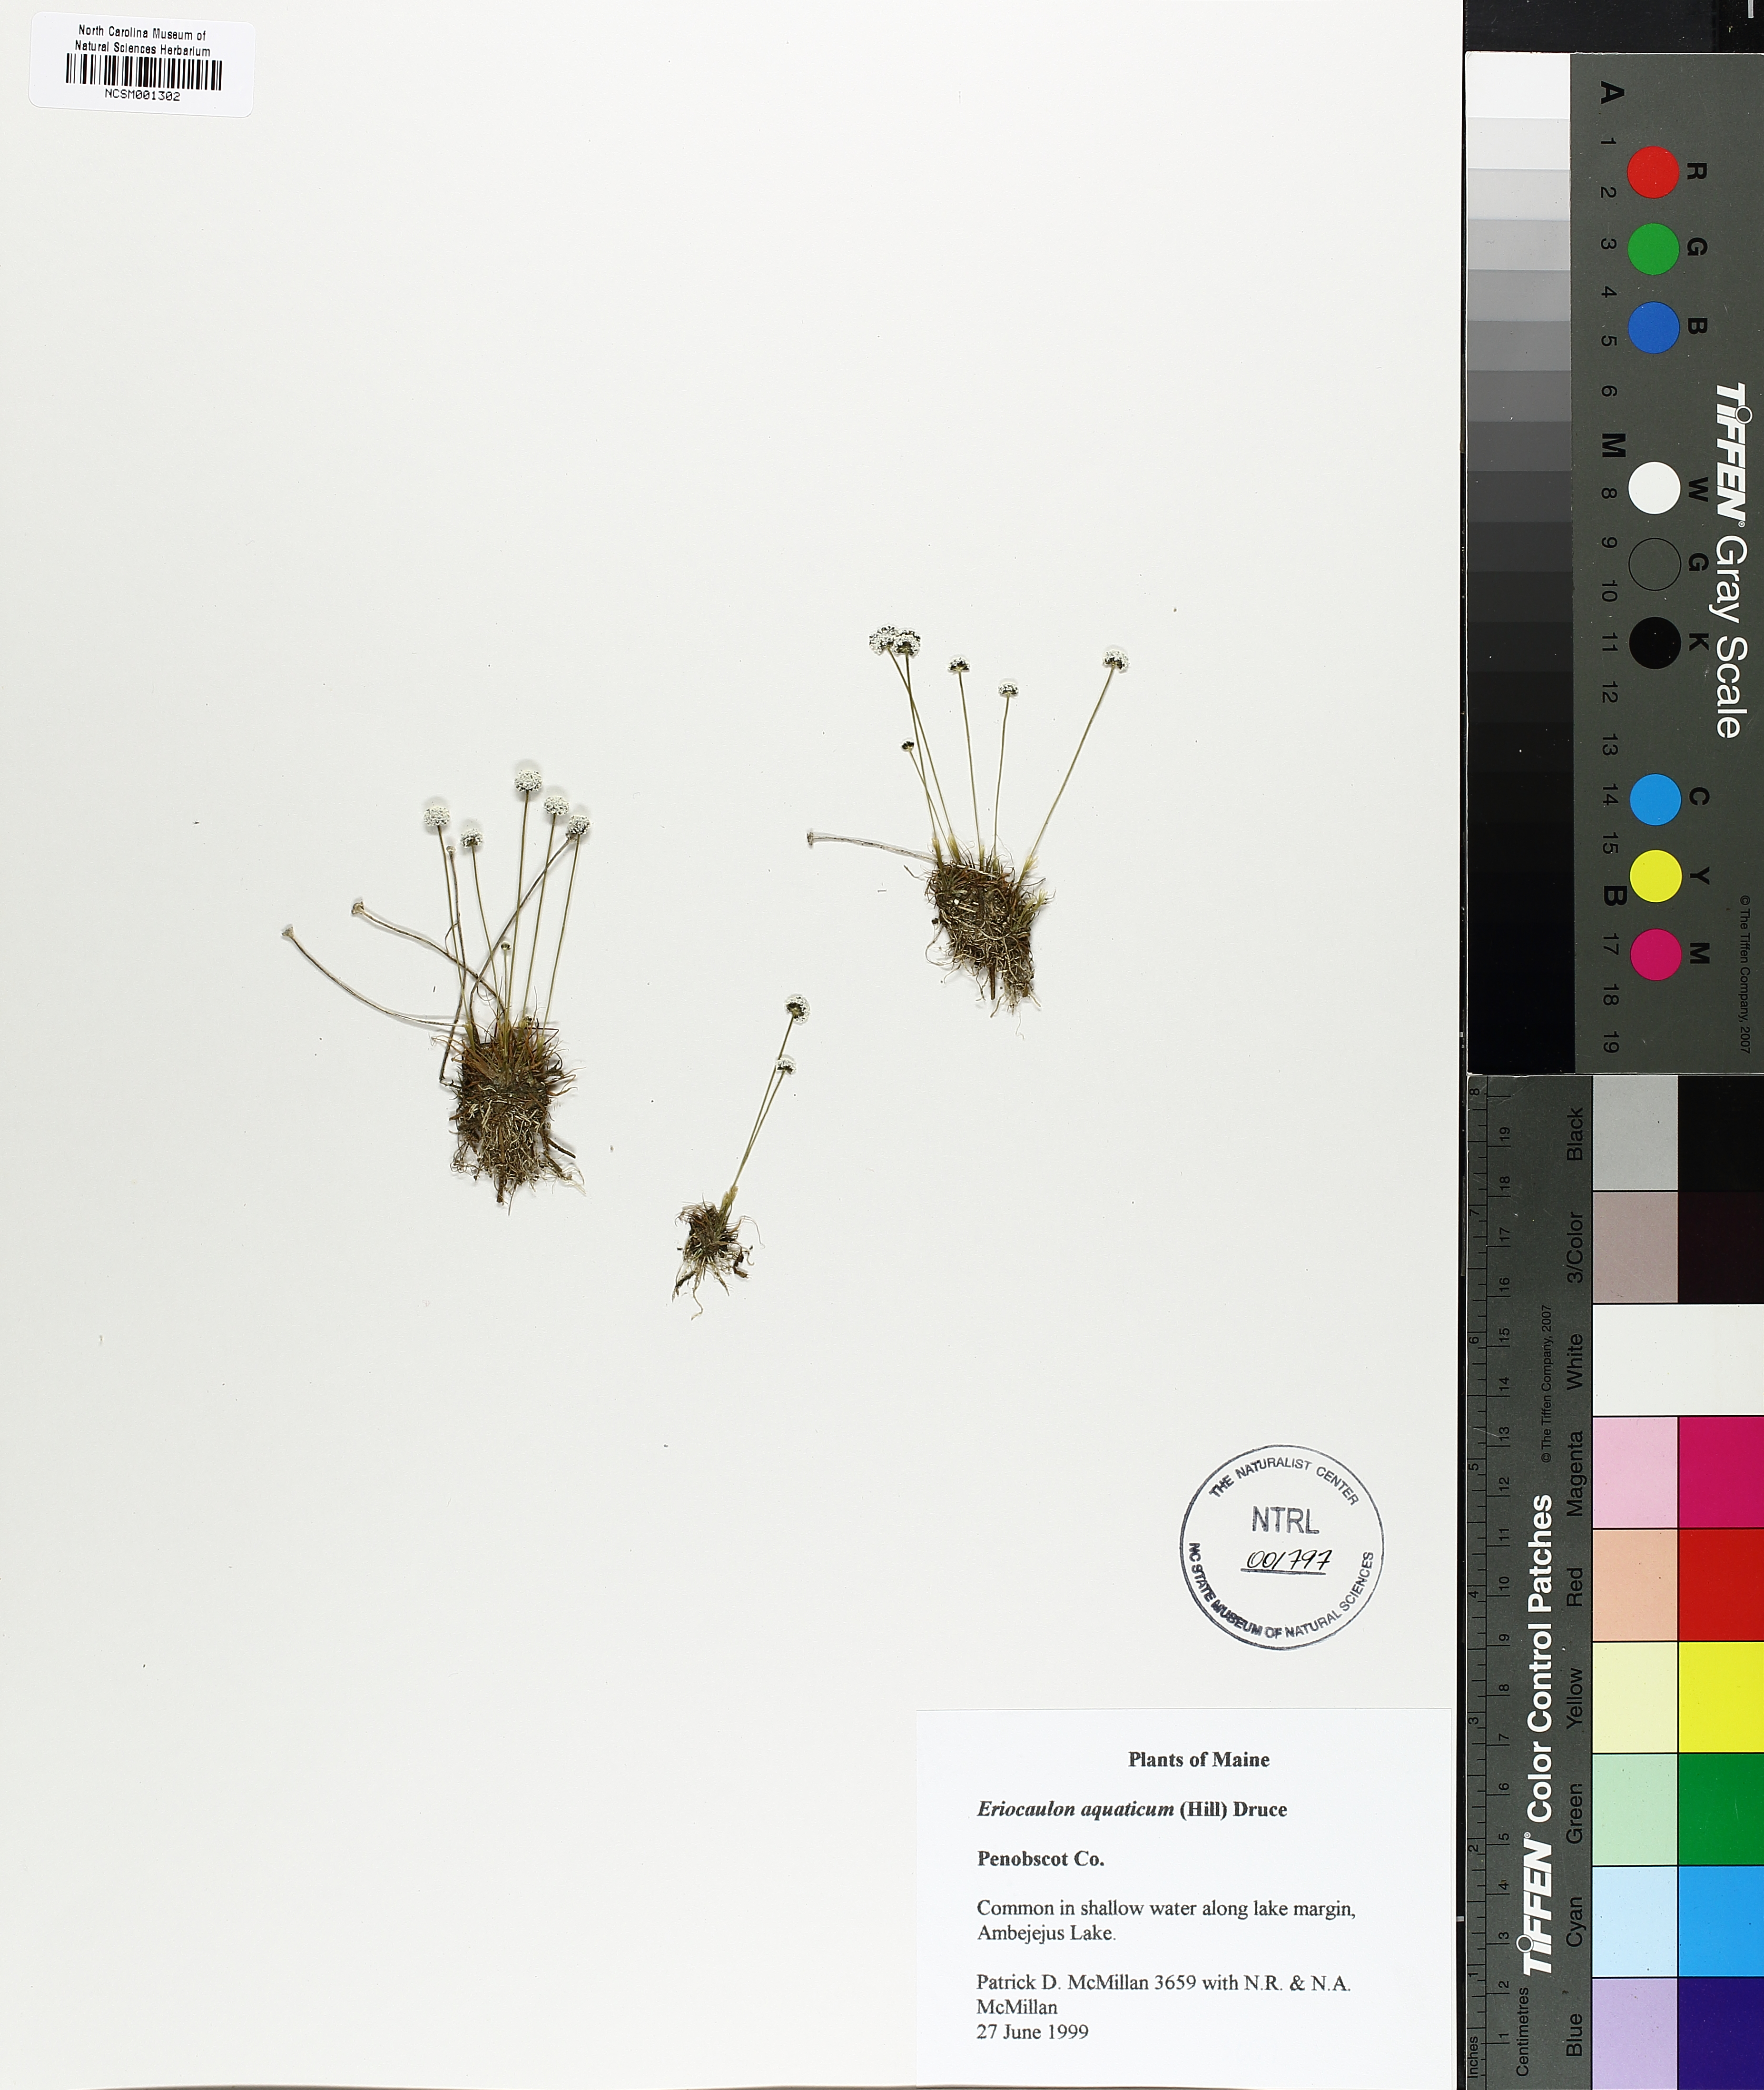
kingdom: Plantae
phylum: Tracheophyta
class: Liliopsida
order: Poales
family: Eriocaulaceae
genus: Eriocaulon
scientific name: Eriocaulon aquaticum
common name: Pipewort
